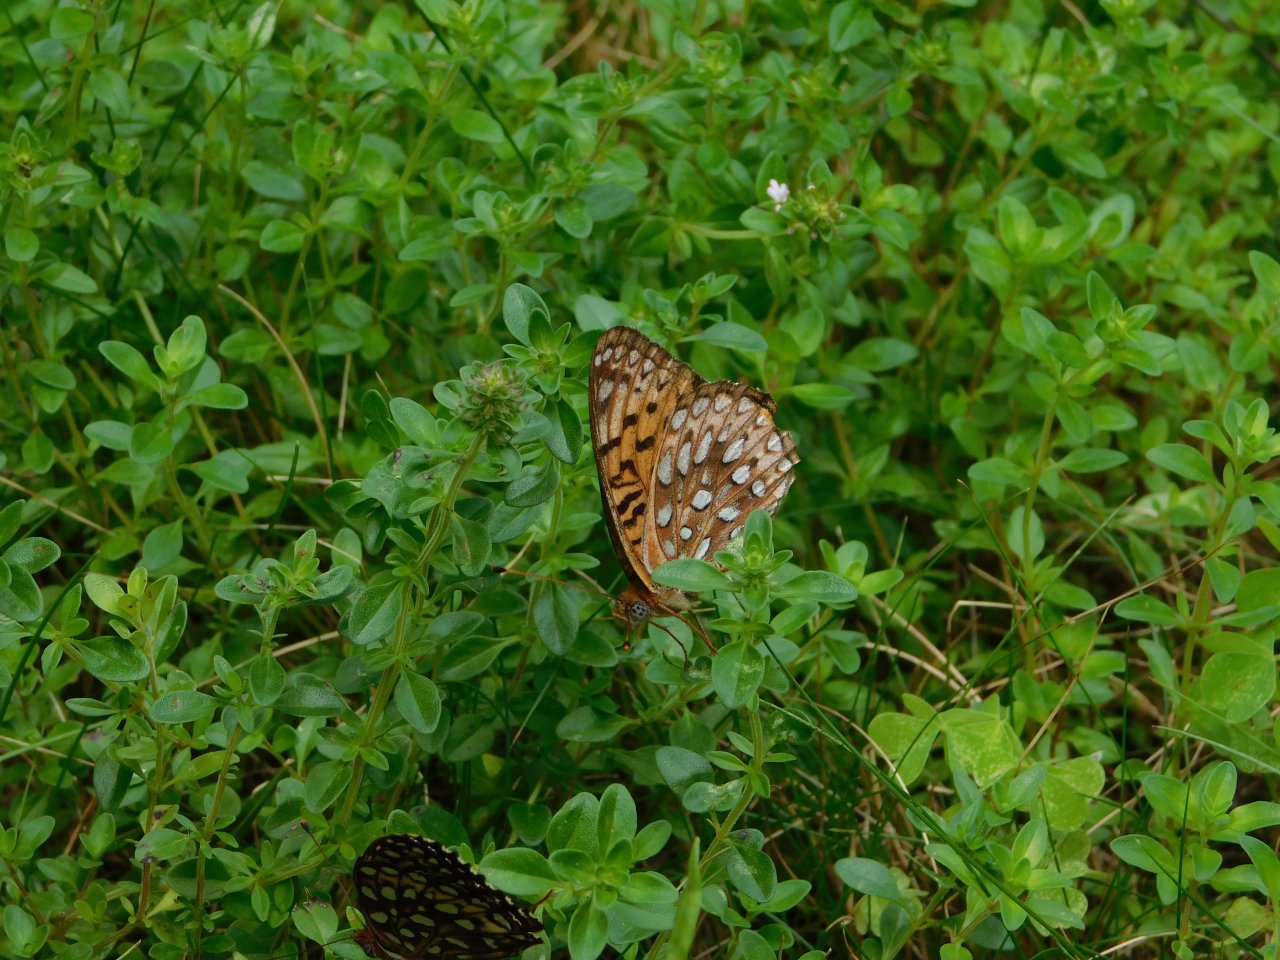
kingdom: Animalia
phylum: Arthropoda
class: Insecta
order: Lepidoptera
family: Nymphalidae
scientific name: Nymphalidae
